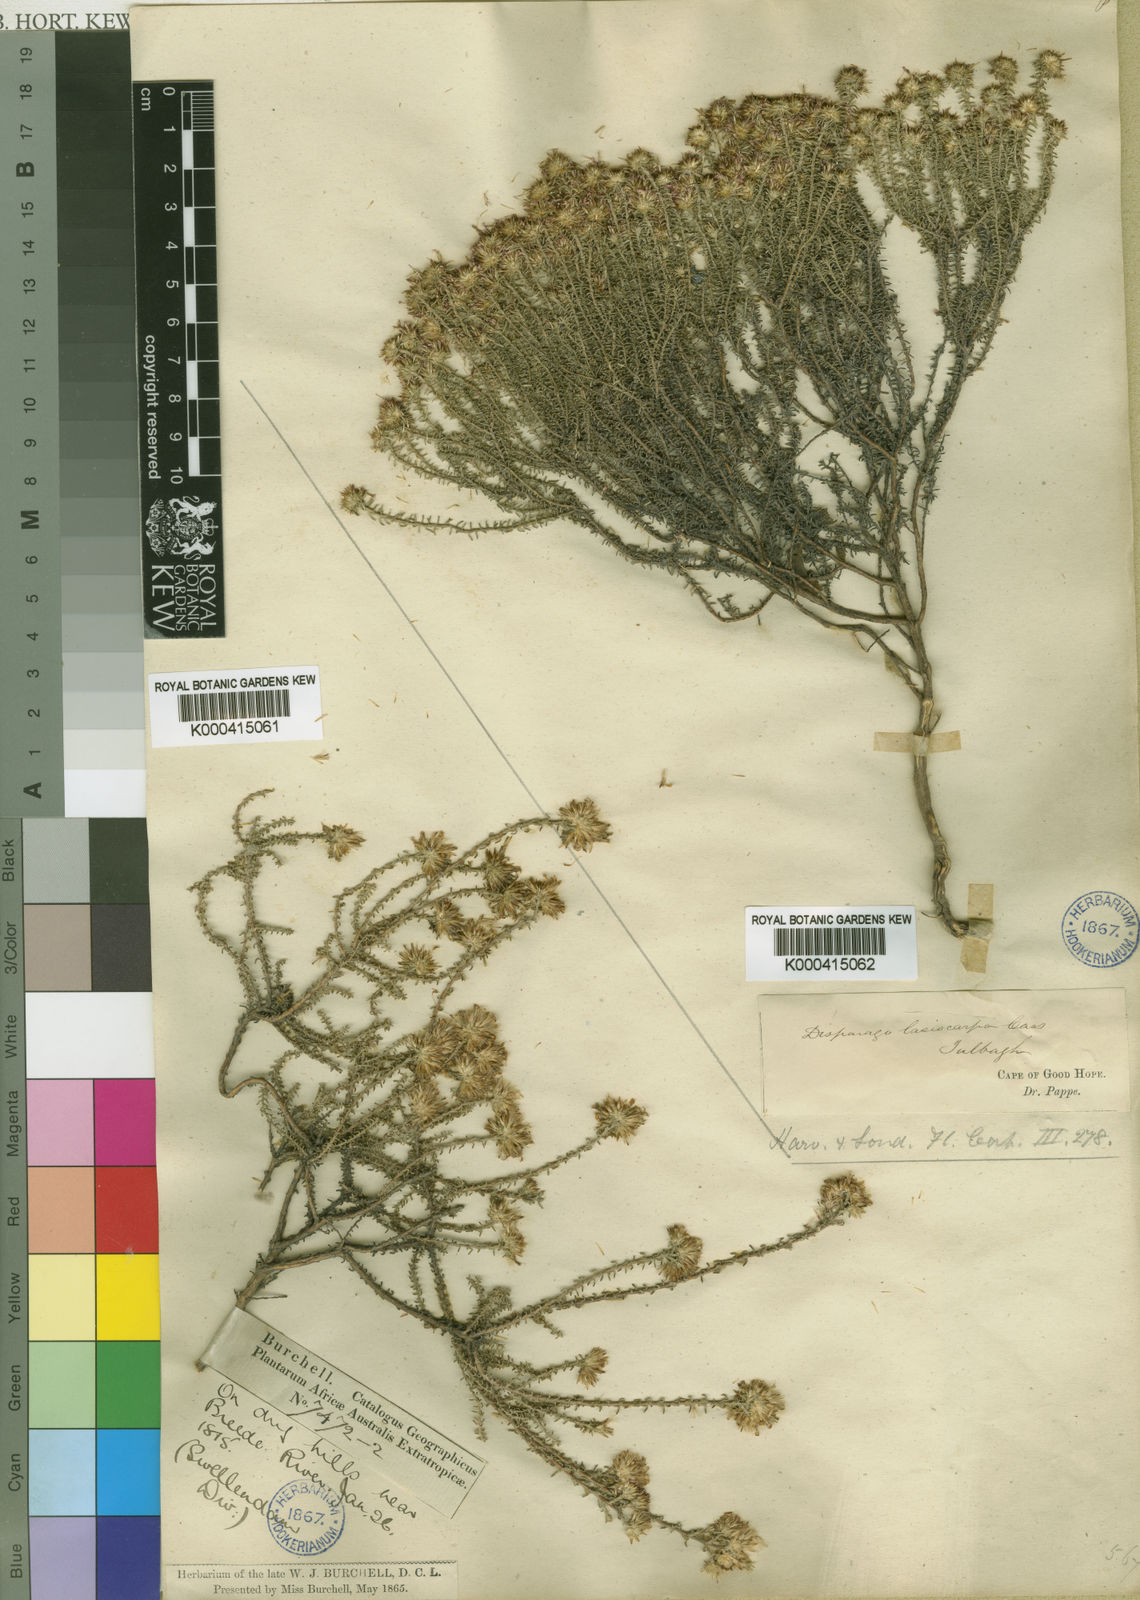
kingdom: Plantae
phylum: Tracheophyta
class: Magnoliopsida
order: Asterales
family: Asteraceae
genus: Disparago
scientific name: Disparago ericoides
